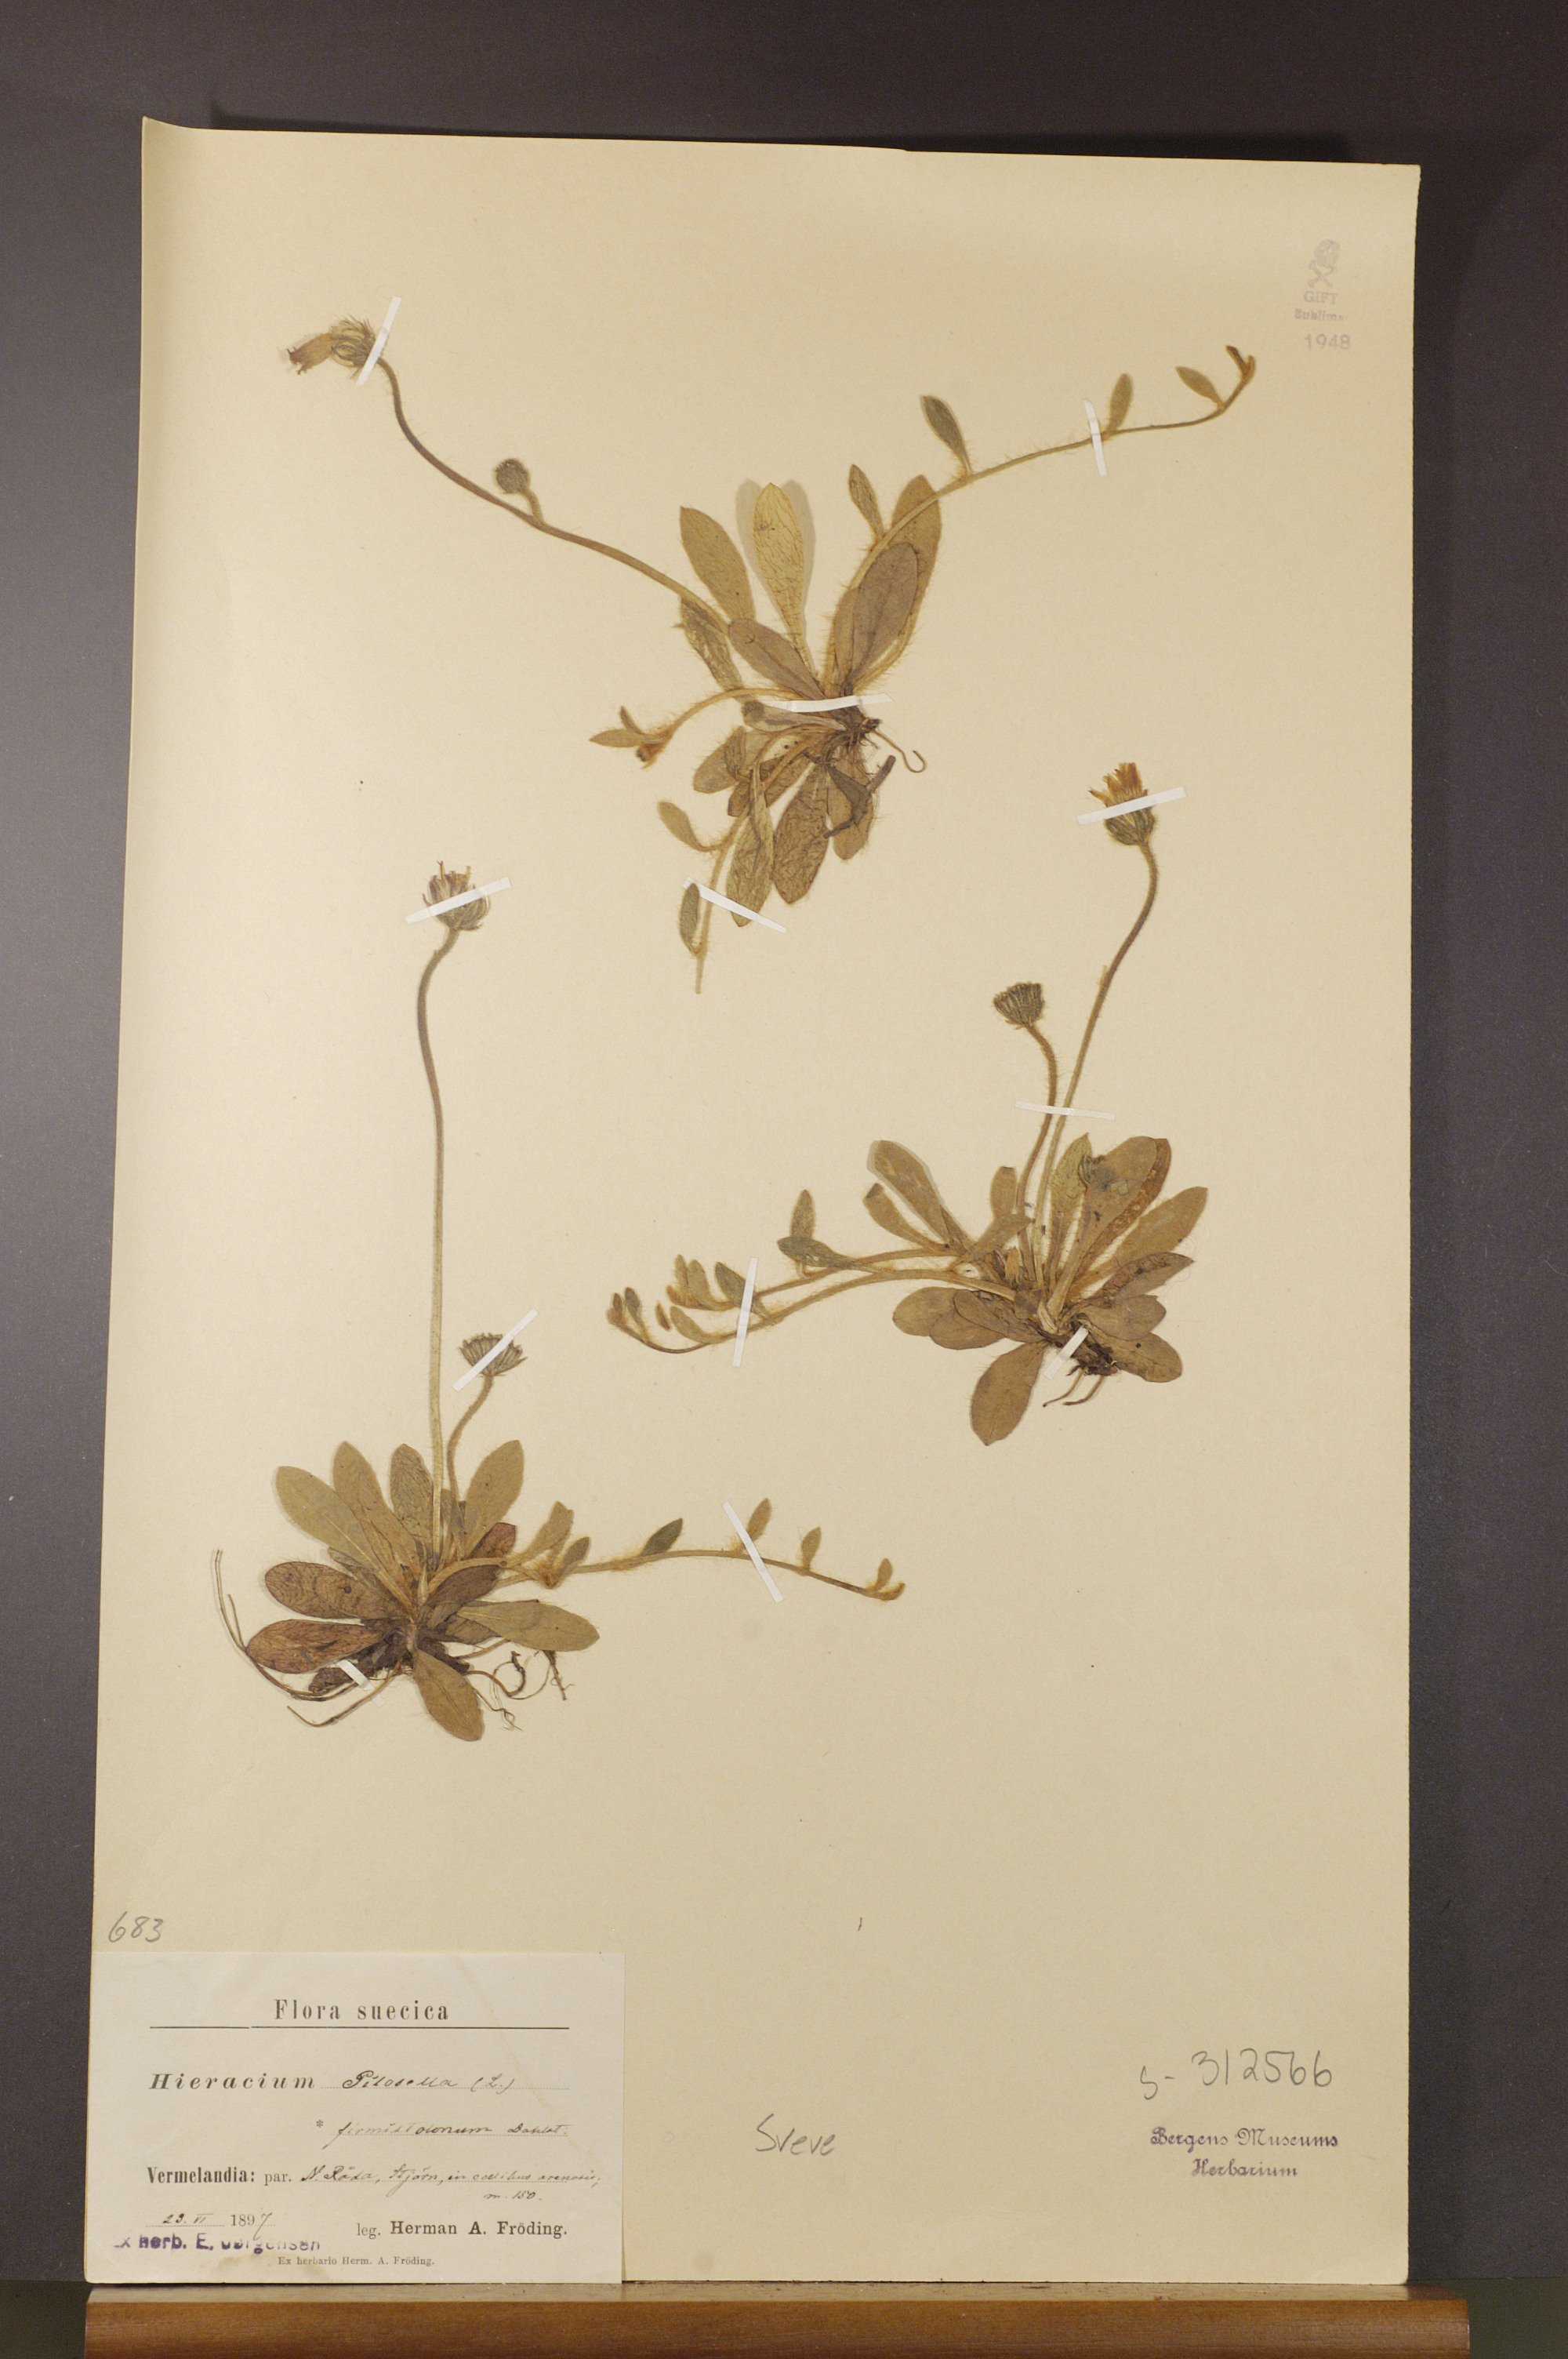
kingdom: Plantae
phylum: Tracheophyta
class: Magnoliopsida
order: Asterales
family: Asteraceae
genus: Pilosella
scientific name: Pilosella officinarum
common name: Mouse-ear hawkweed
